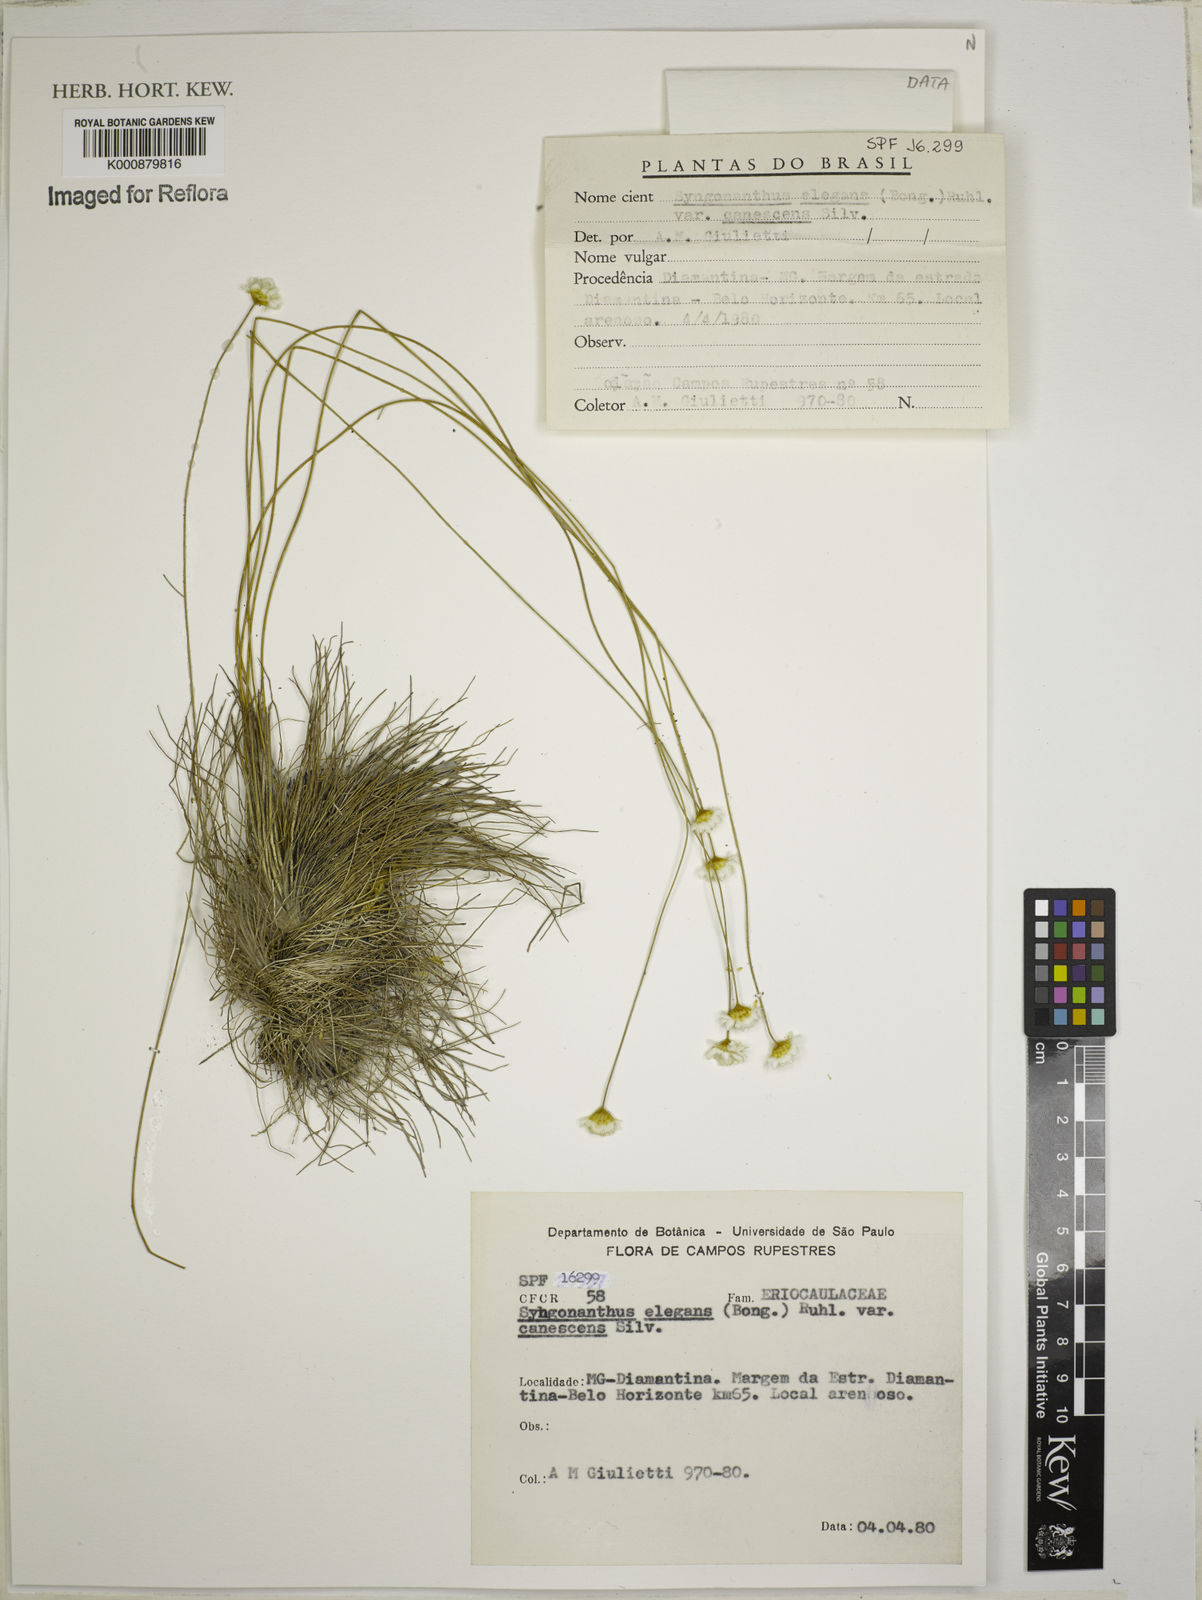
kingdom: Plantae
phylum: Tracheophyta
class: Liliopsida
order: Poales
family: Eriocaulaceae
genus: Comanthera
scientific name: Comanthera elegans
